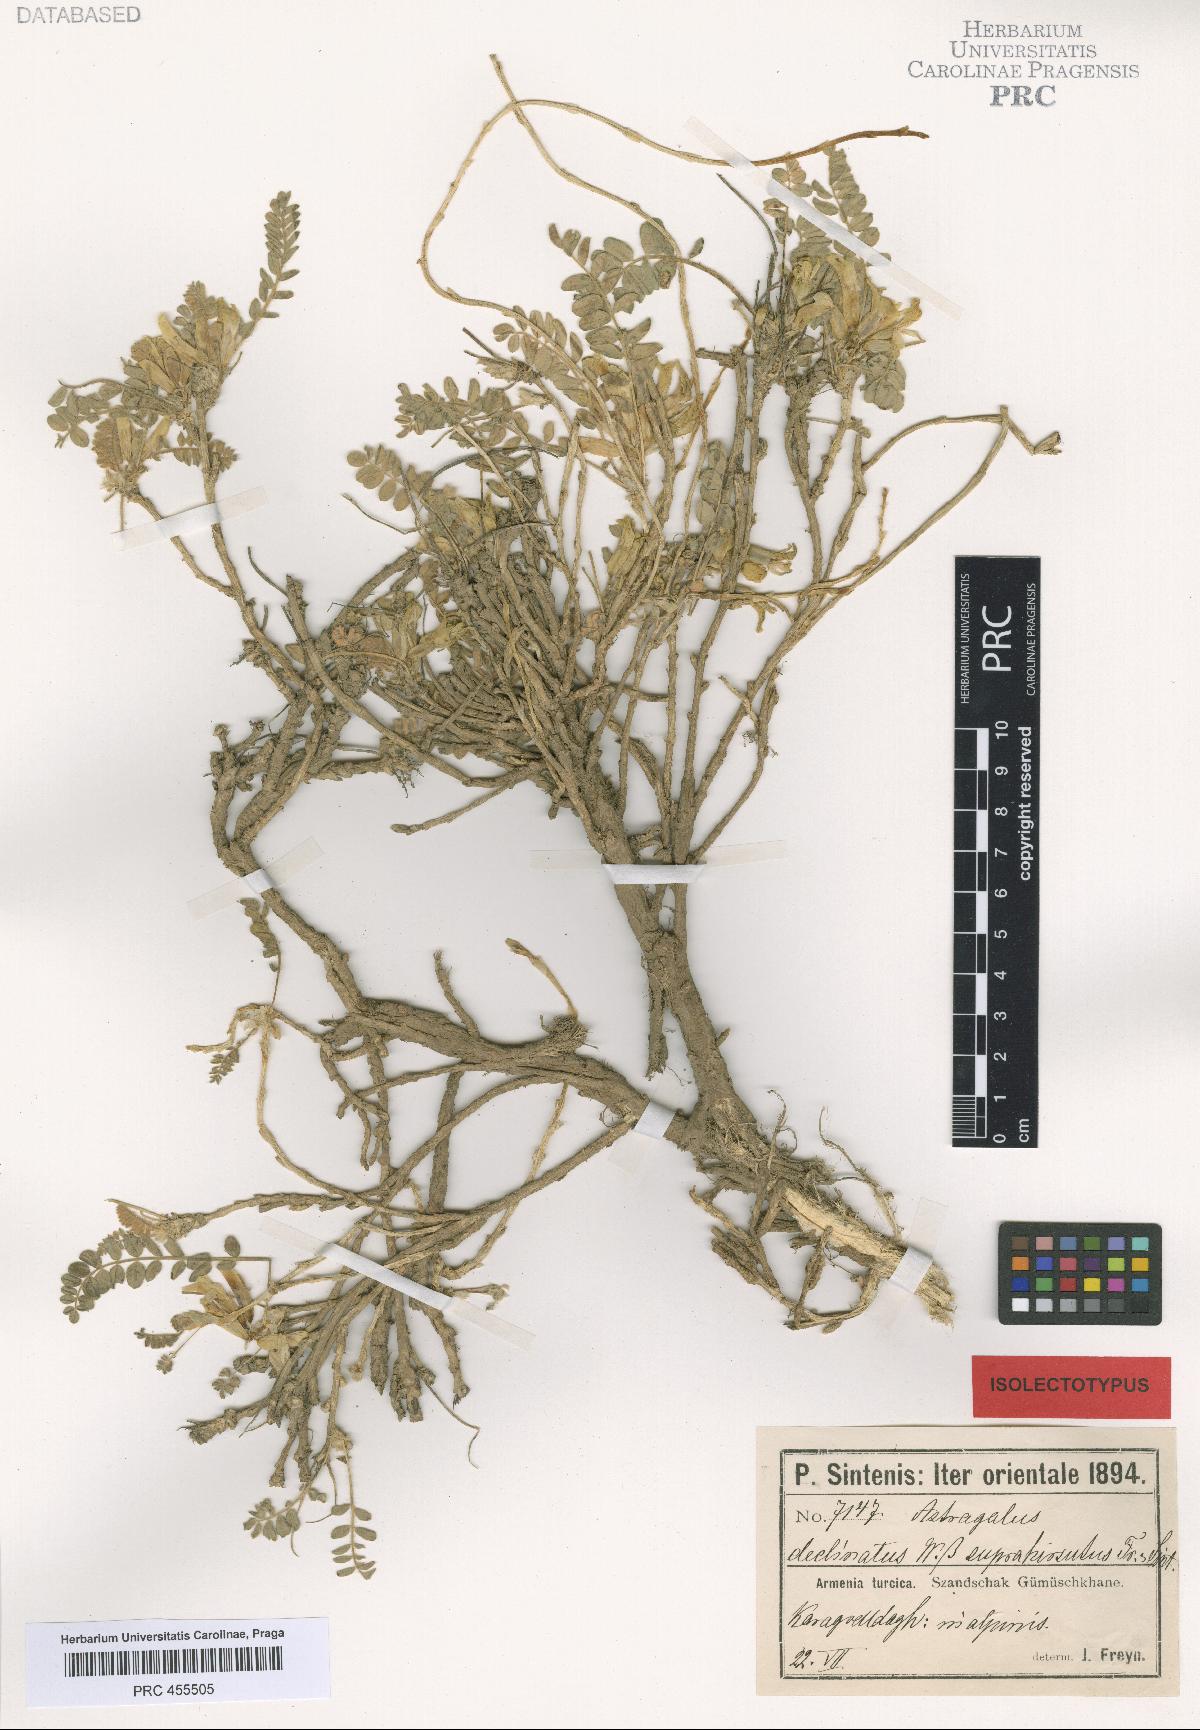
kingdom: Plantae
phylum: Tracheophyta
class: Magnoliopsida
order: Fabales
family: Fabaceae
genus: Astragalus
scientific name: Astragalus pinetorum
